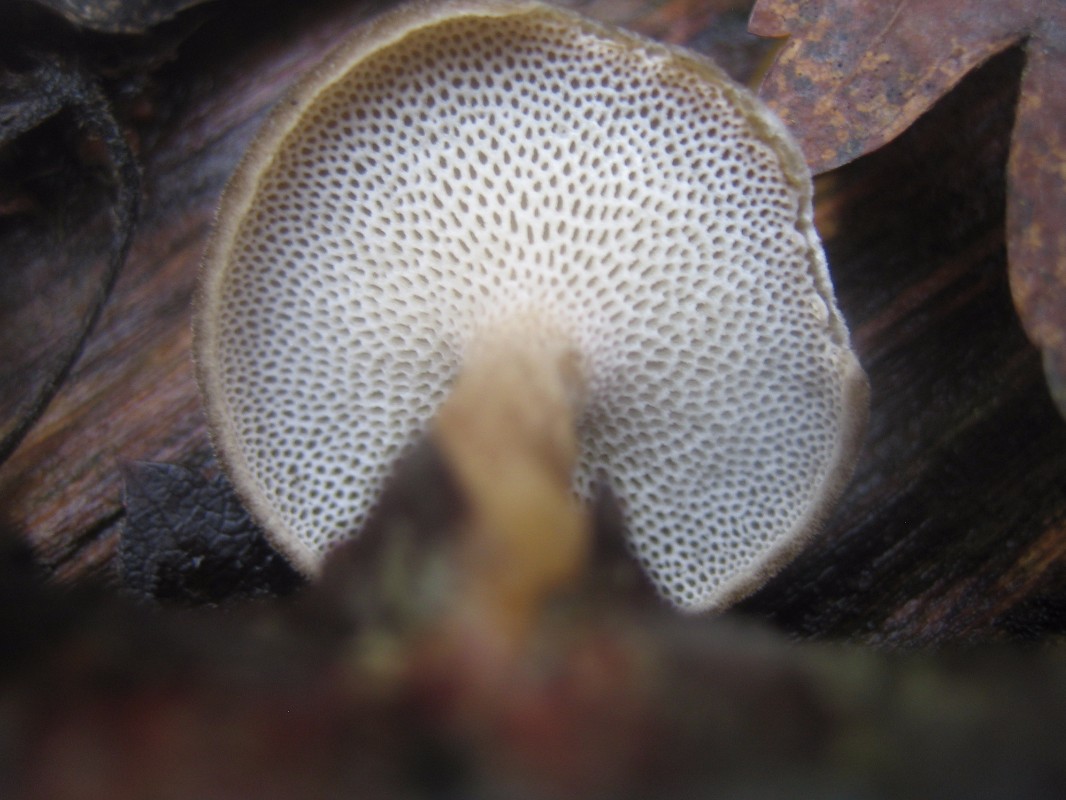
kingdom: Fungi
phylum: Basidiomycota
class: Agaricomycetes
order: Polyporales
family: Polyporaceae
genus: Lentinus
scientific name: Lentinus brumalis
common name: vinter-stilkporesvamp
